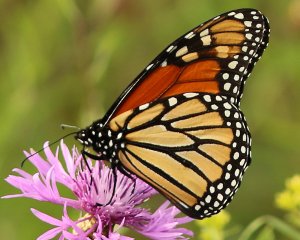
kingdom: Animalia
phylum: Arthropoda
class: Insecta
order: Lepidoptera
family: Nymphalidae
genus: Danaus
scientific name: Danaus plexippus
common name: Monarch
